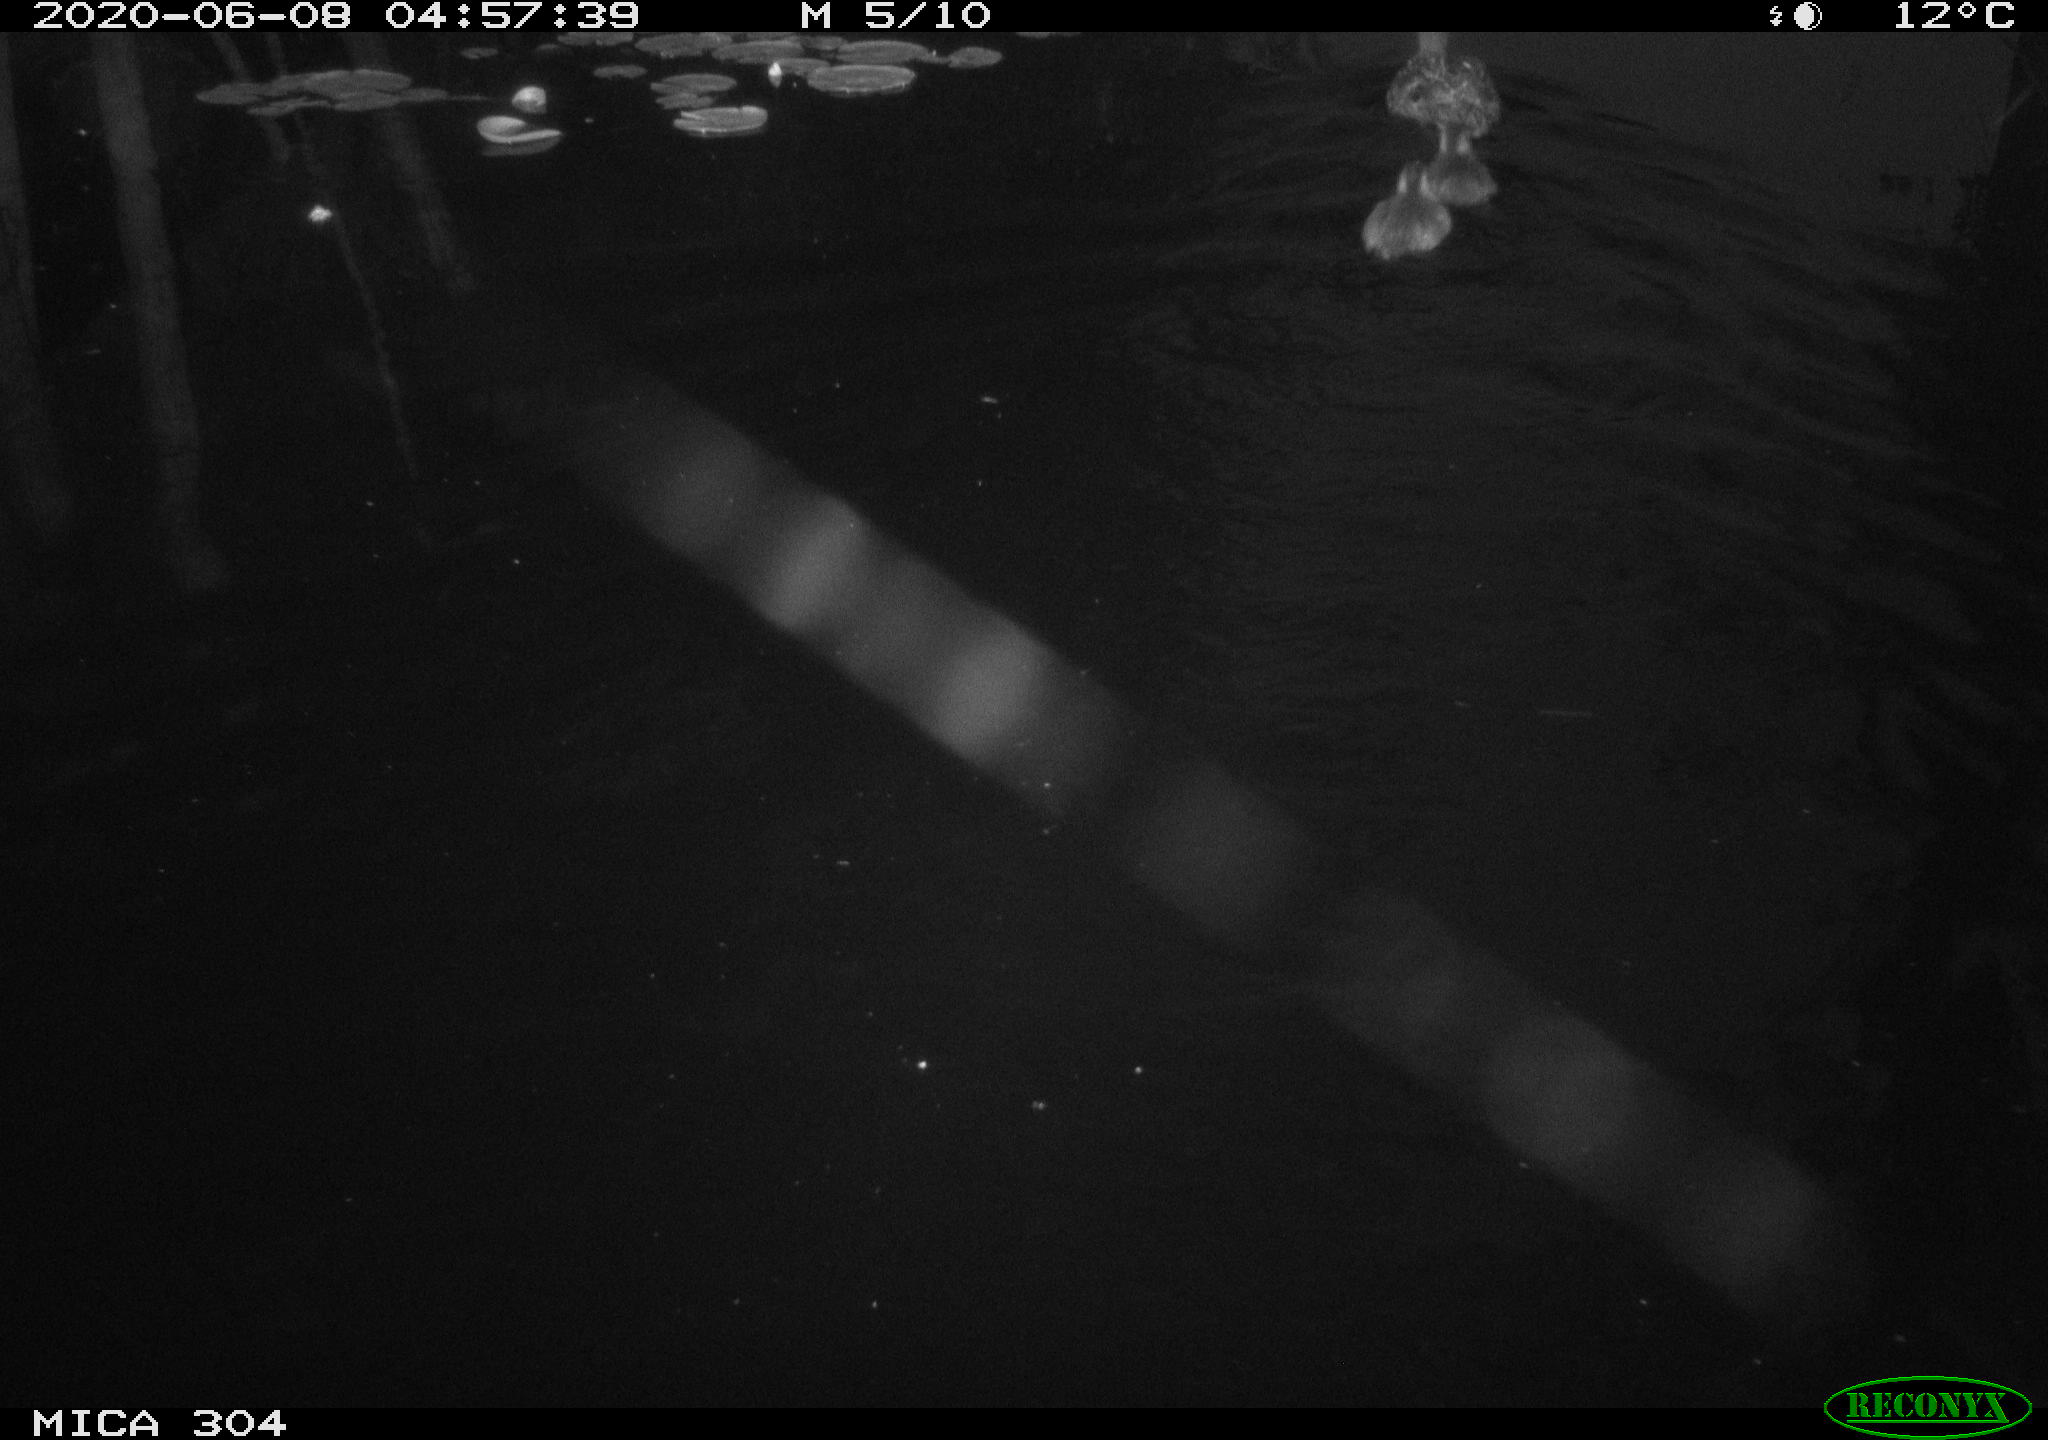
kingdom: Animalia
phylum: Chordata
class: Aves
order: Anseriformes
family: Anatidae
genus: Anas
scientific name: Anas platyrhynchos
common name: Mallard
